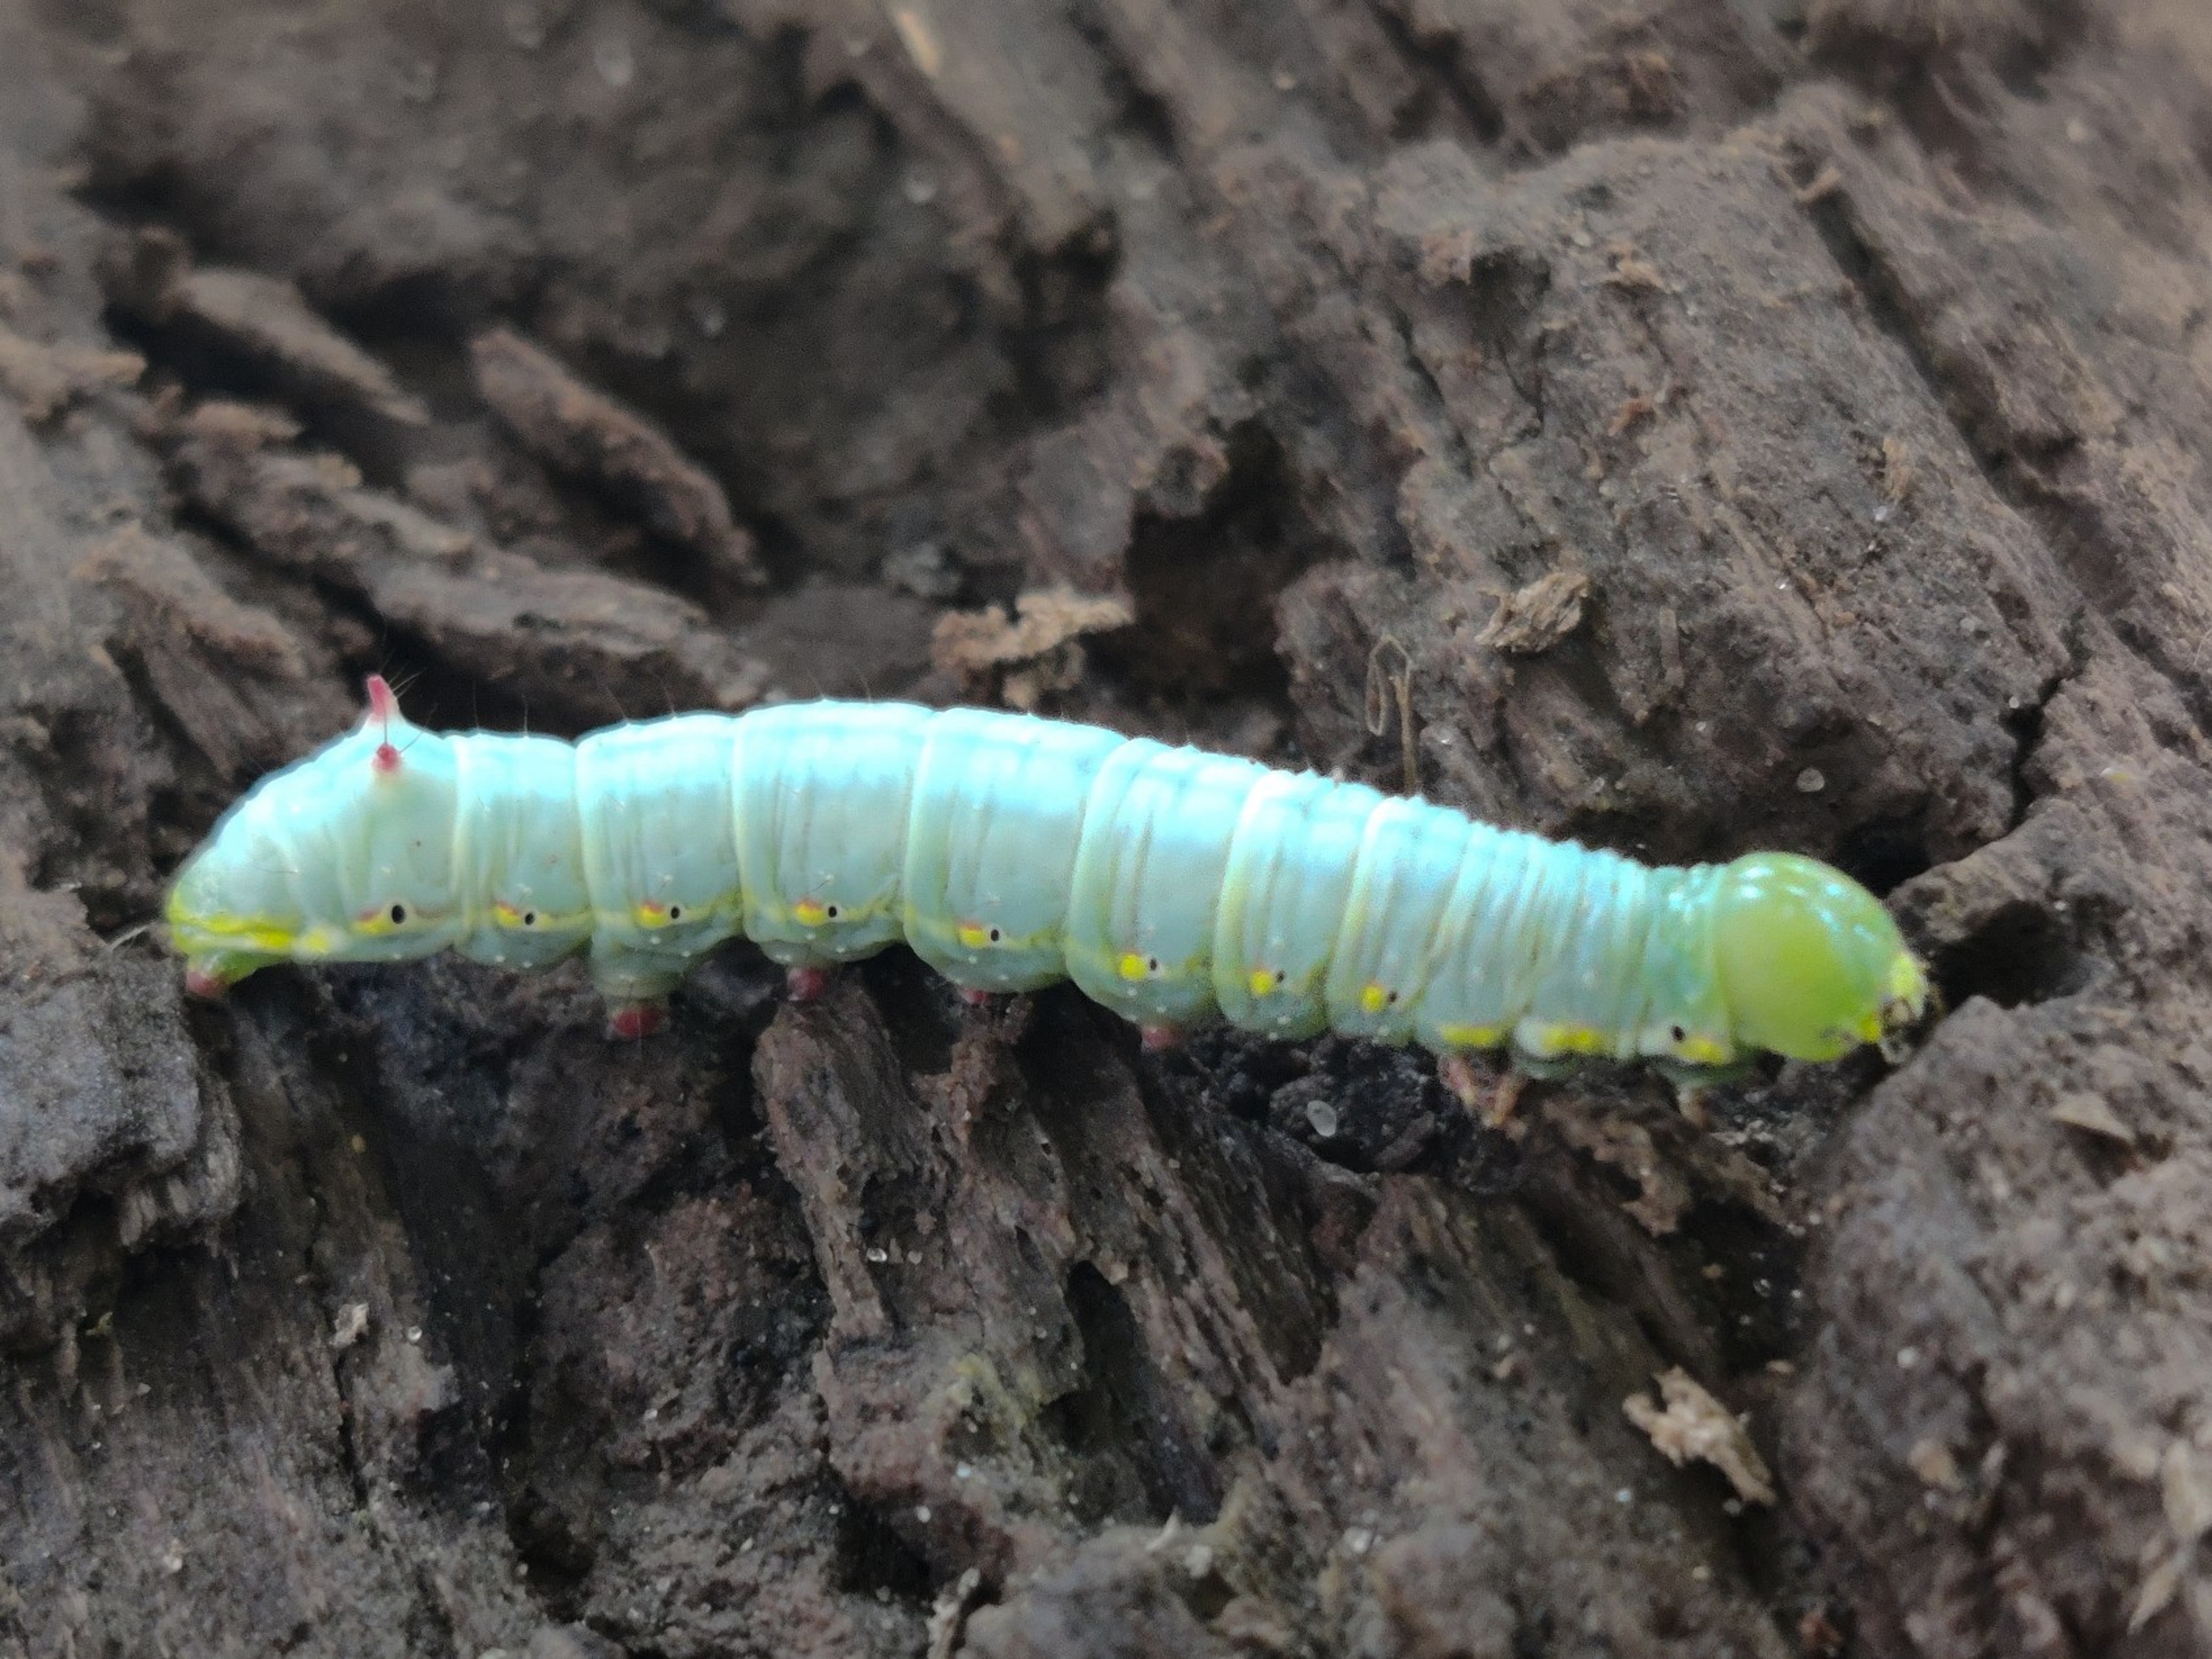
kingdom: Animalia
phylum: Arthropoda
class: Insecta
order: Lepidoptera
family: Notodontidae
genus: Ptilodon
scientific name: Ptilodon capucina
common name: Kamelspinder
